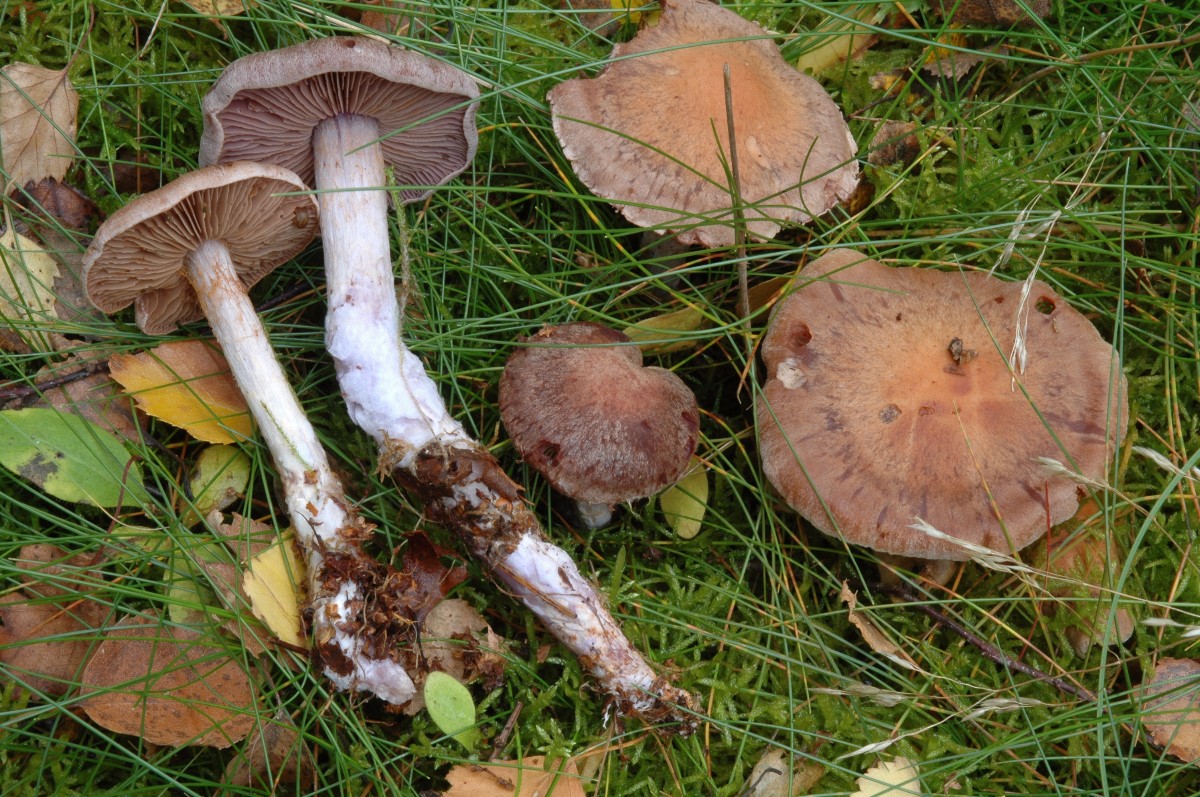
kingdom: Fungi
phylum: Basidiomycota
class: Agaricomycetes
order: Agaricales
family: Cortinariaceae
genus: Cortinarius
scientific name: Cortinarius simulatus
